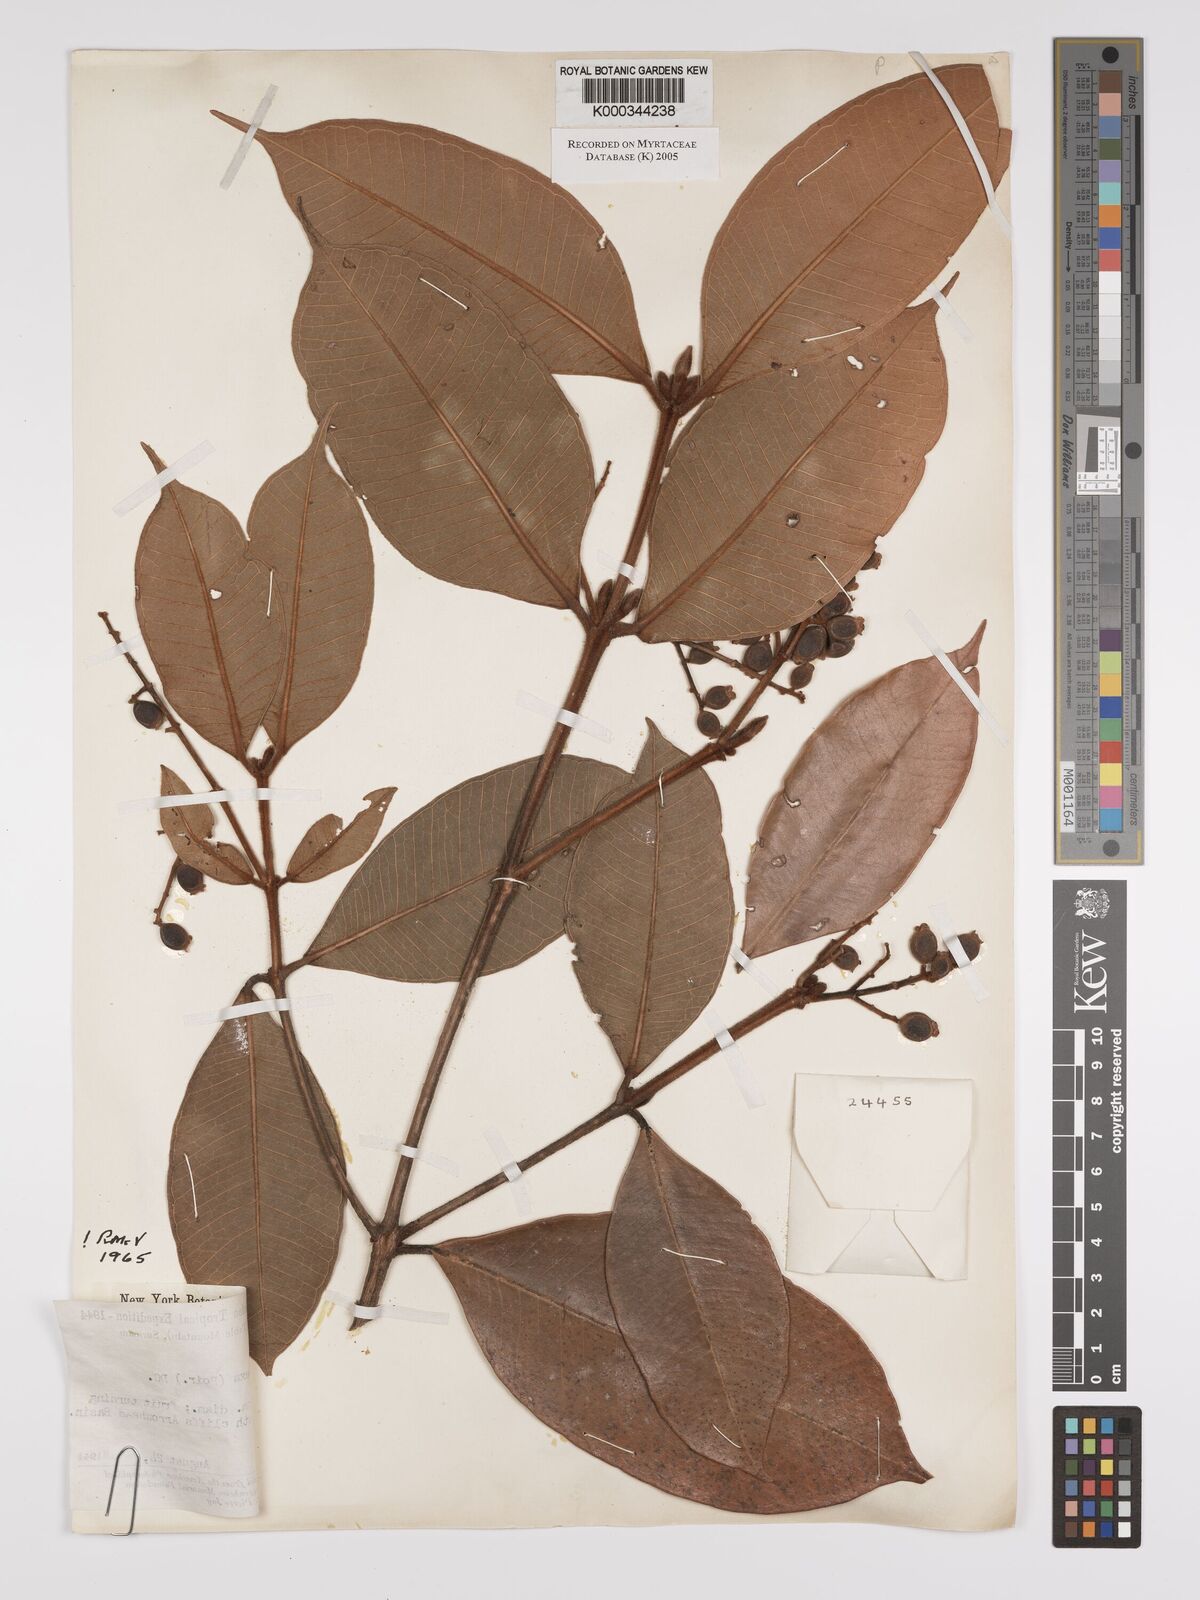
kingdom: Plantae
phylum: Tracheophyta
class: Magnoliopsida
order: Myrtales
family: Myrtaceae
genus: Myrcia
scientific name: Myrcia deflexa
